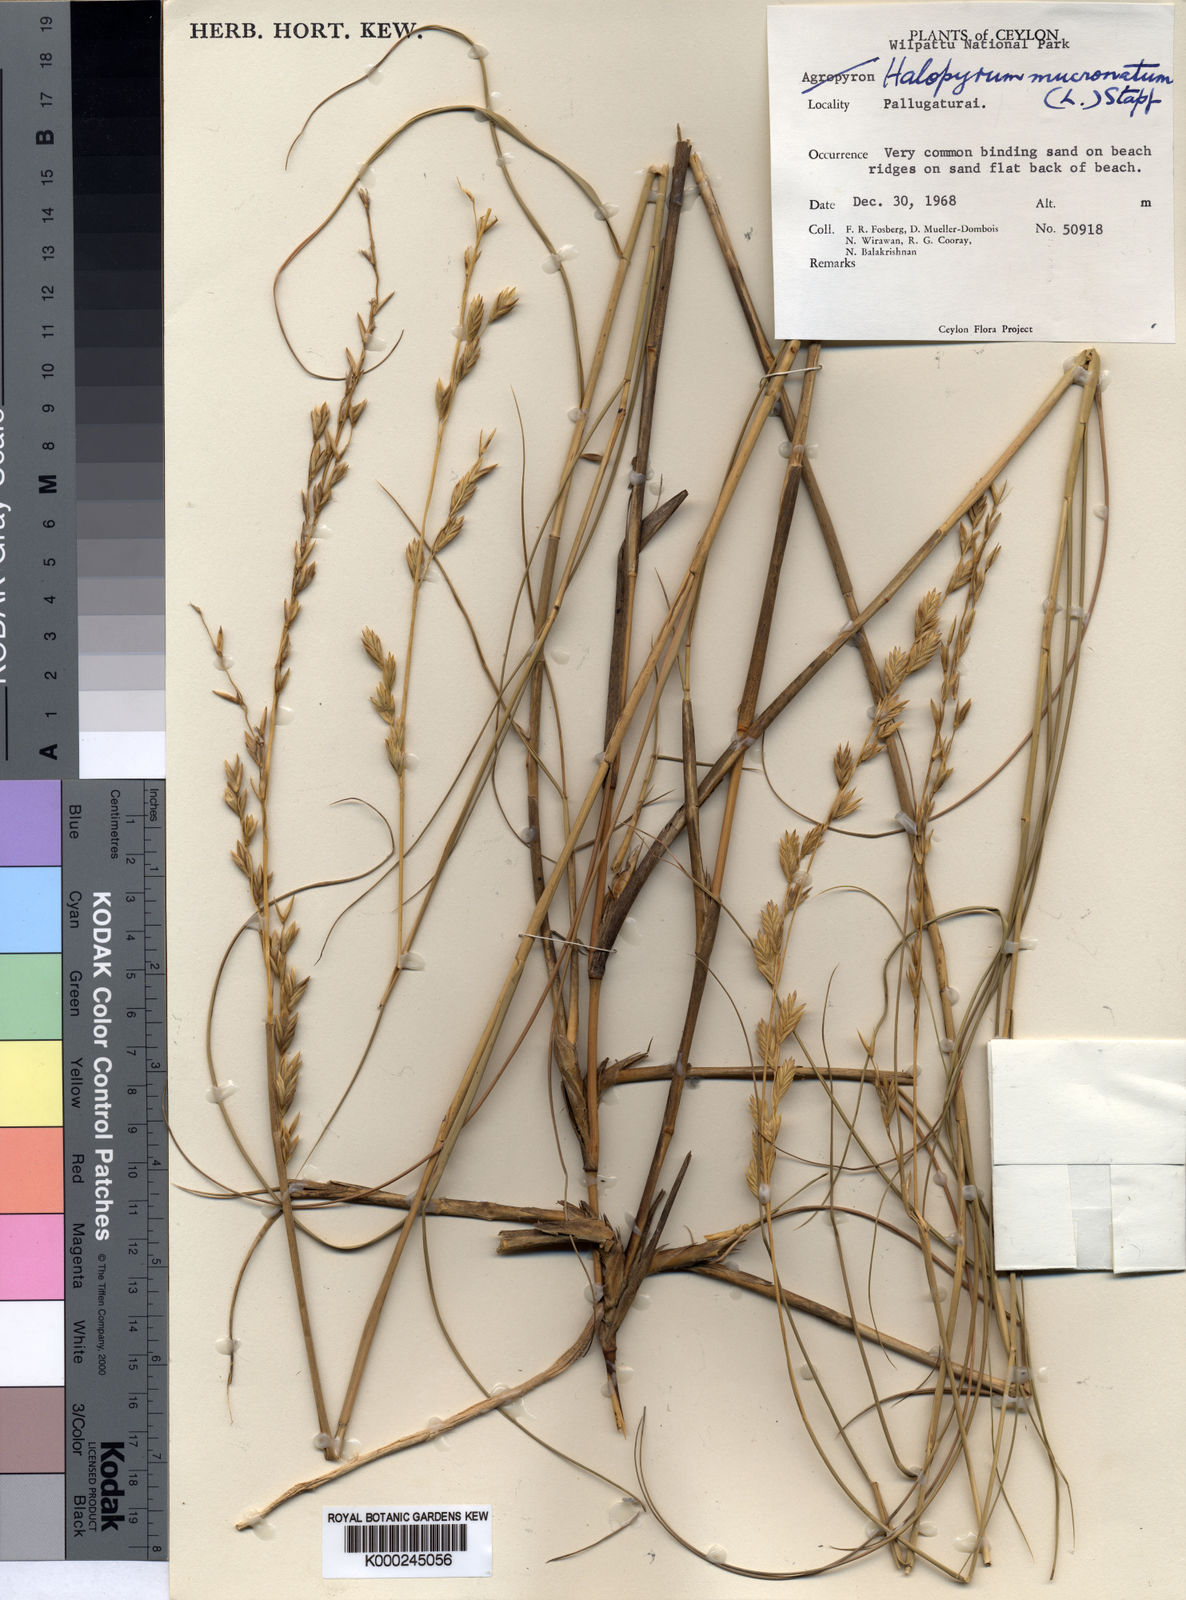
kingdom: Plantae
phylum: Tracheophyta
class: Liliopsida
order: Poales
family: Poaceae
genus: Halopyrum
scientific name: Halopyrum mucronatum
